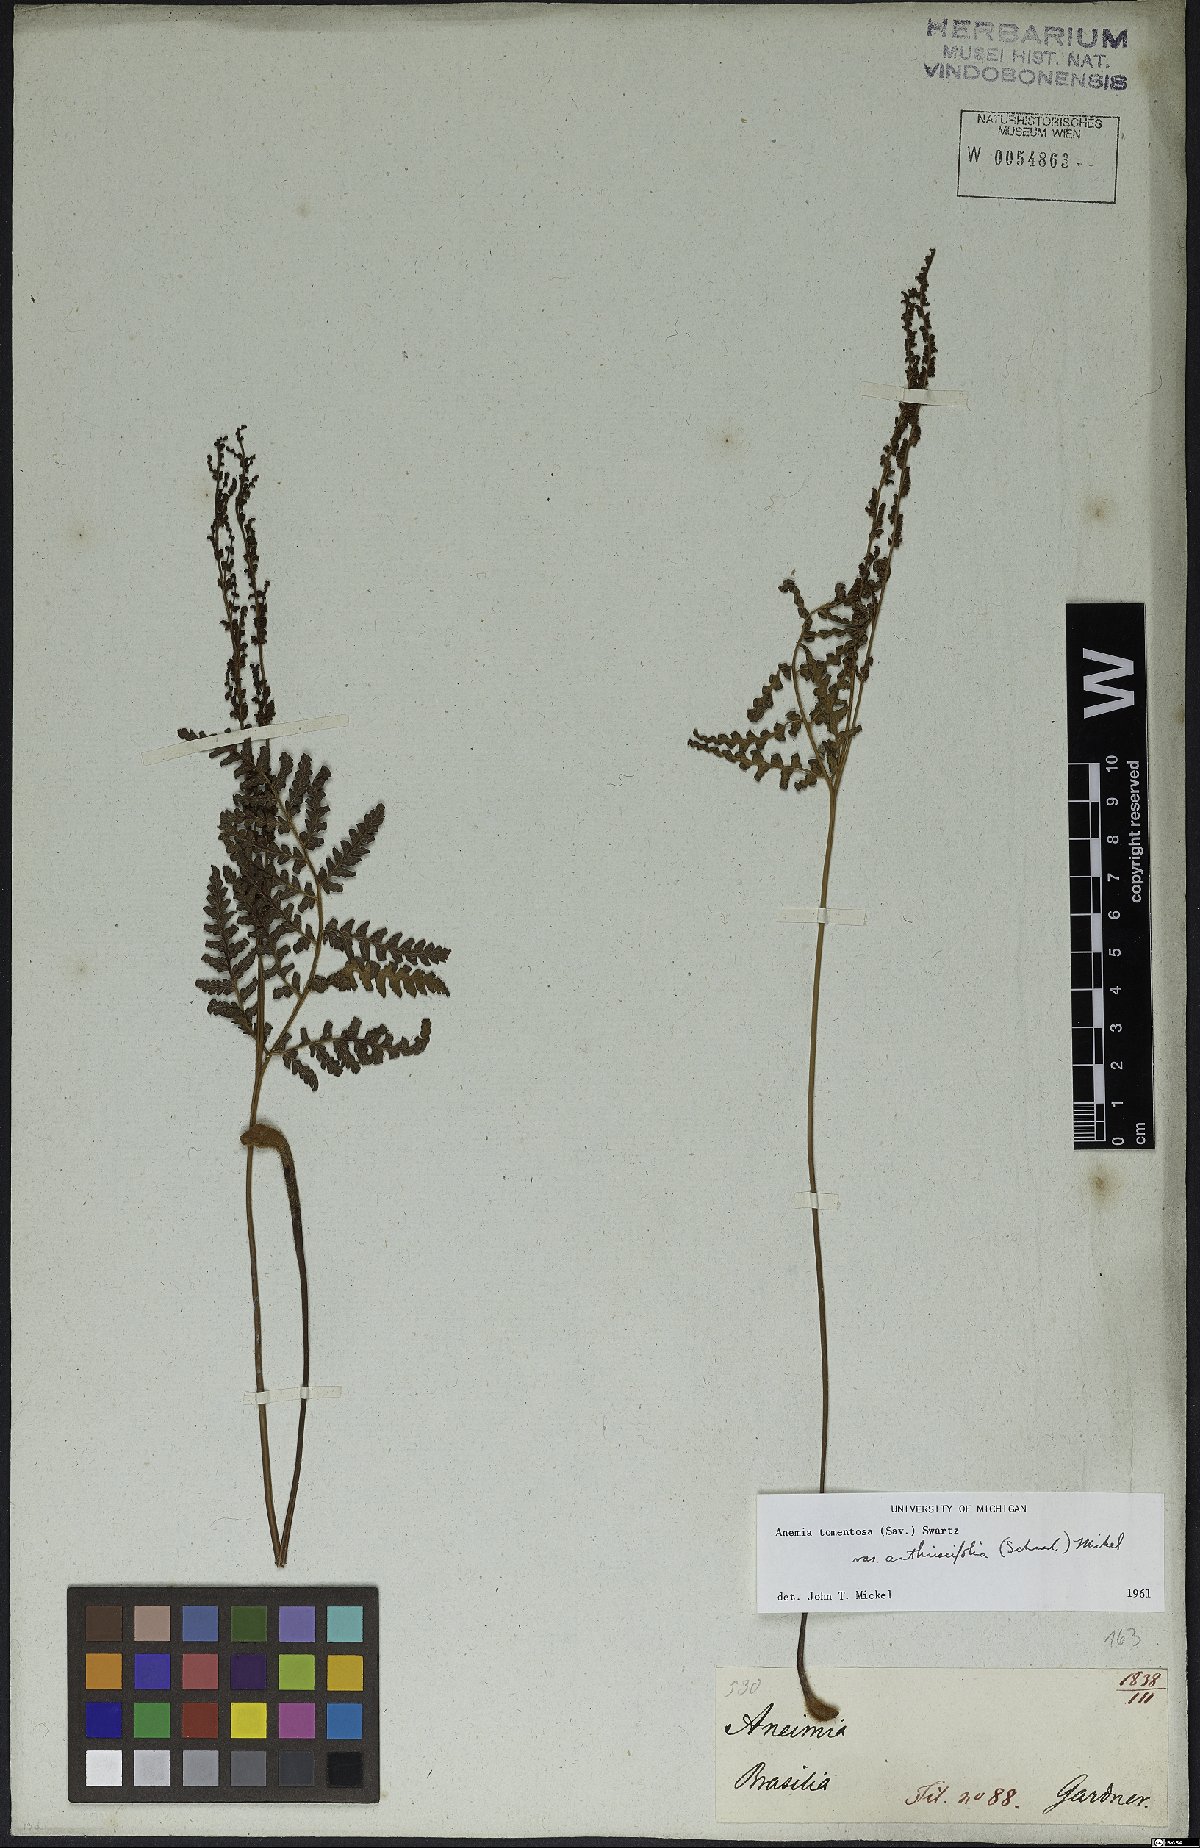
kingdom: Plantae
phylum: Tracheophyta
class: Polypodiopsida
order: Schizaeales
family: Anemiaceae
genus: Anemia
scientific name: Anemia tomentosa
